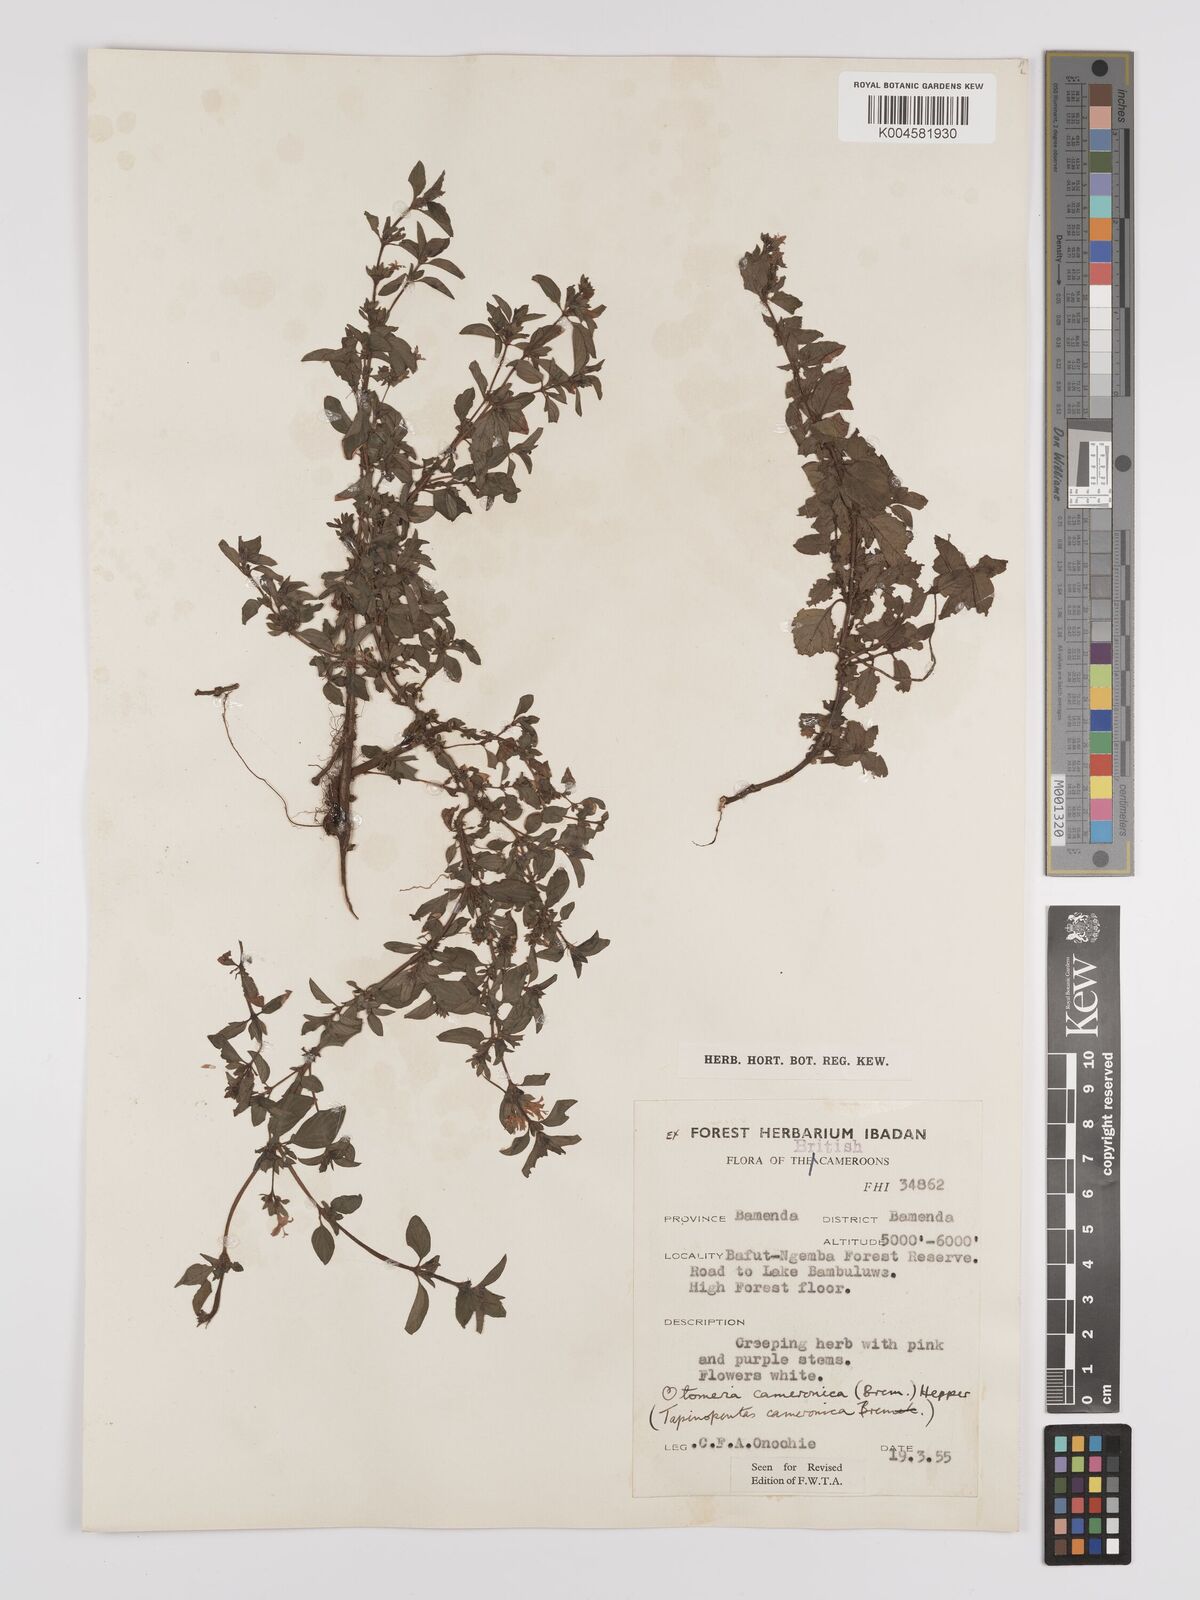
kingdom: Plantae
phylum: Tracheophyta
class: Magnoliopsida
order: Gentianales
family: Rubiaceae
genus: Otomeria
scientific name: Otomeria cameronica
